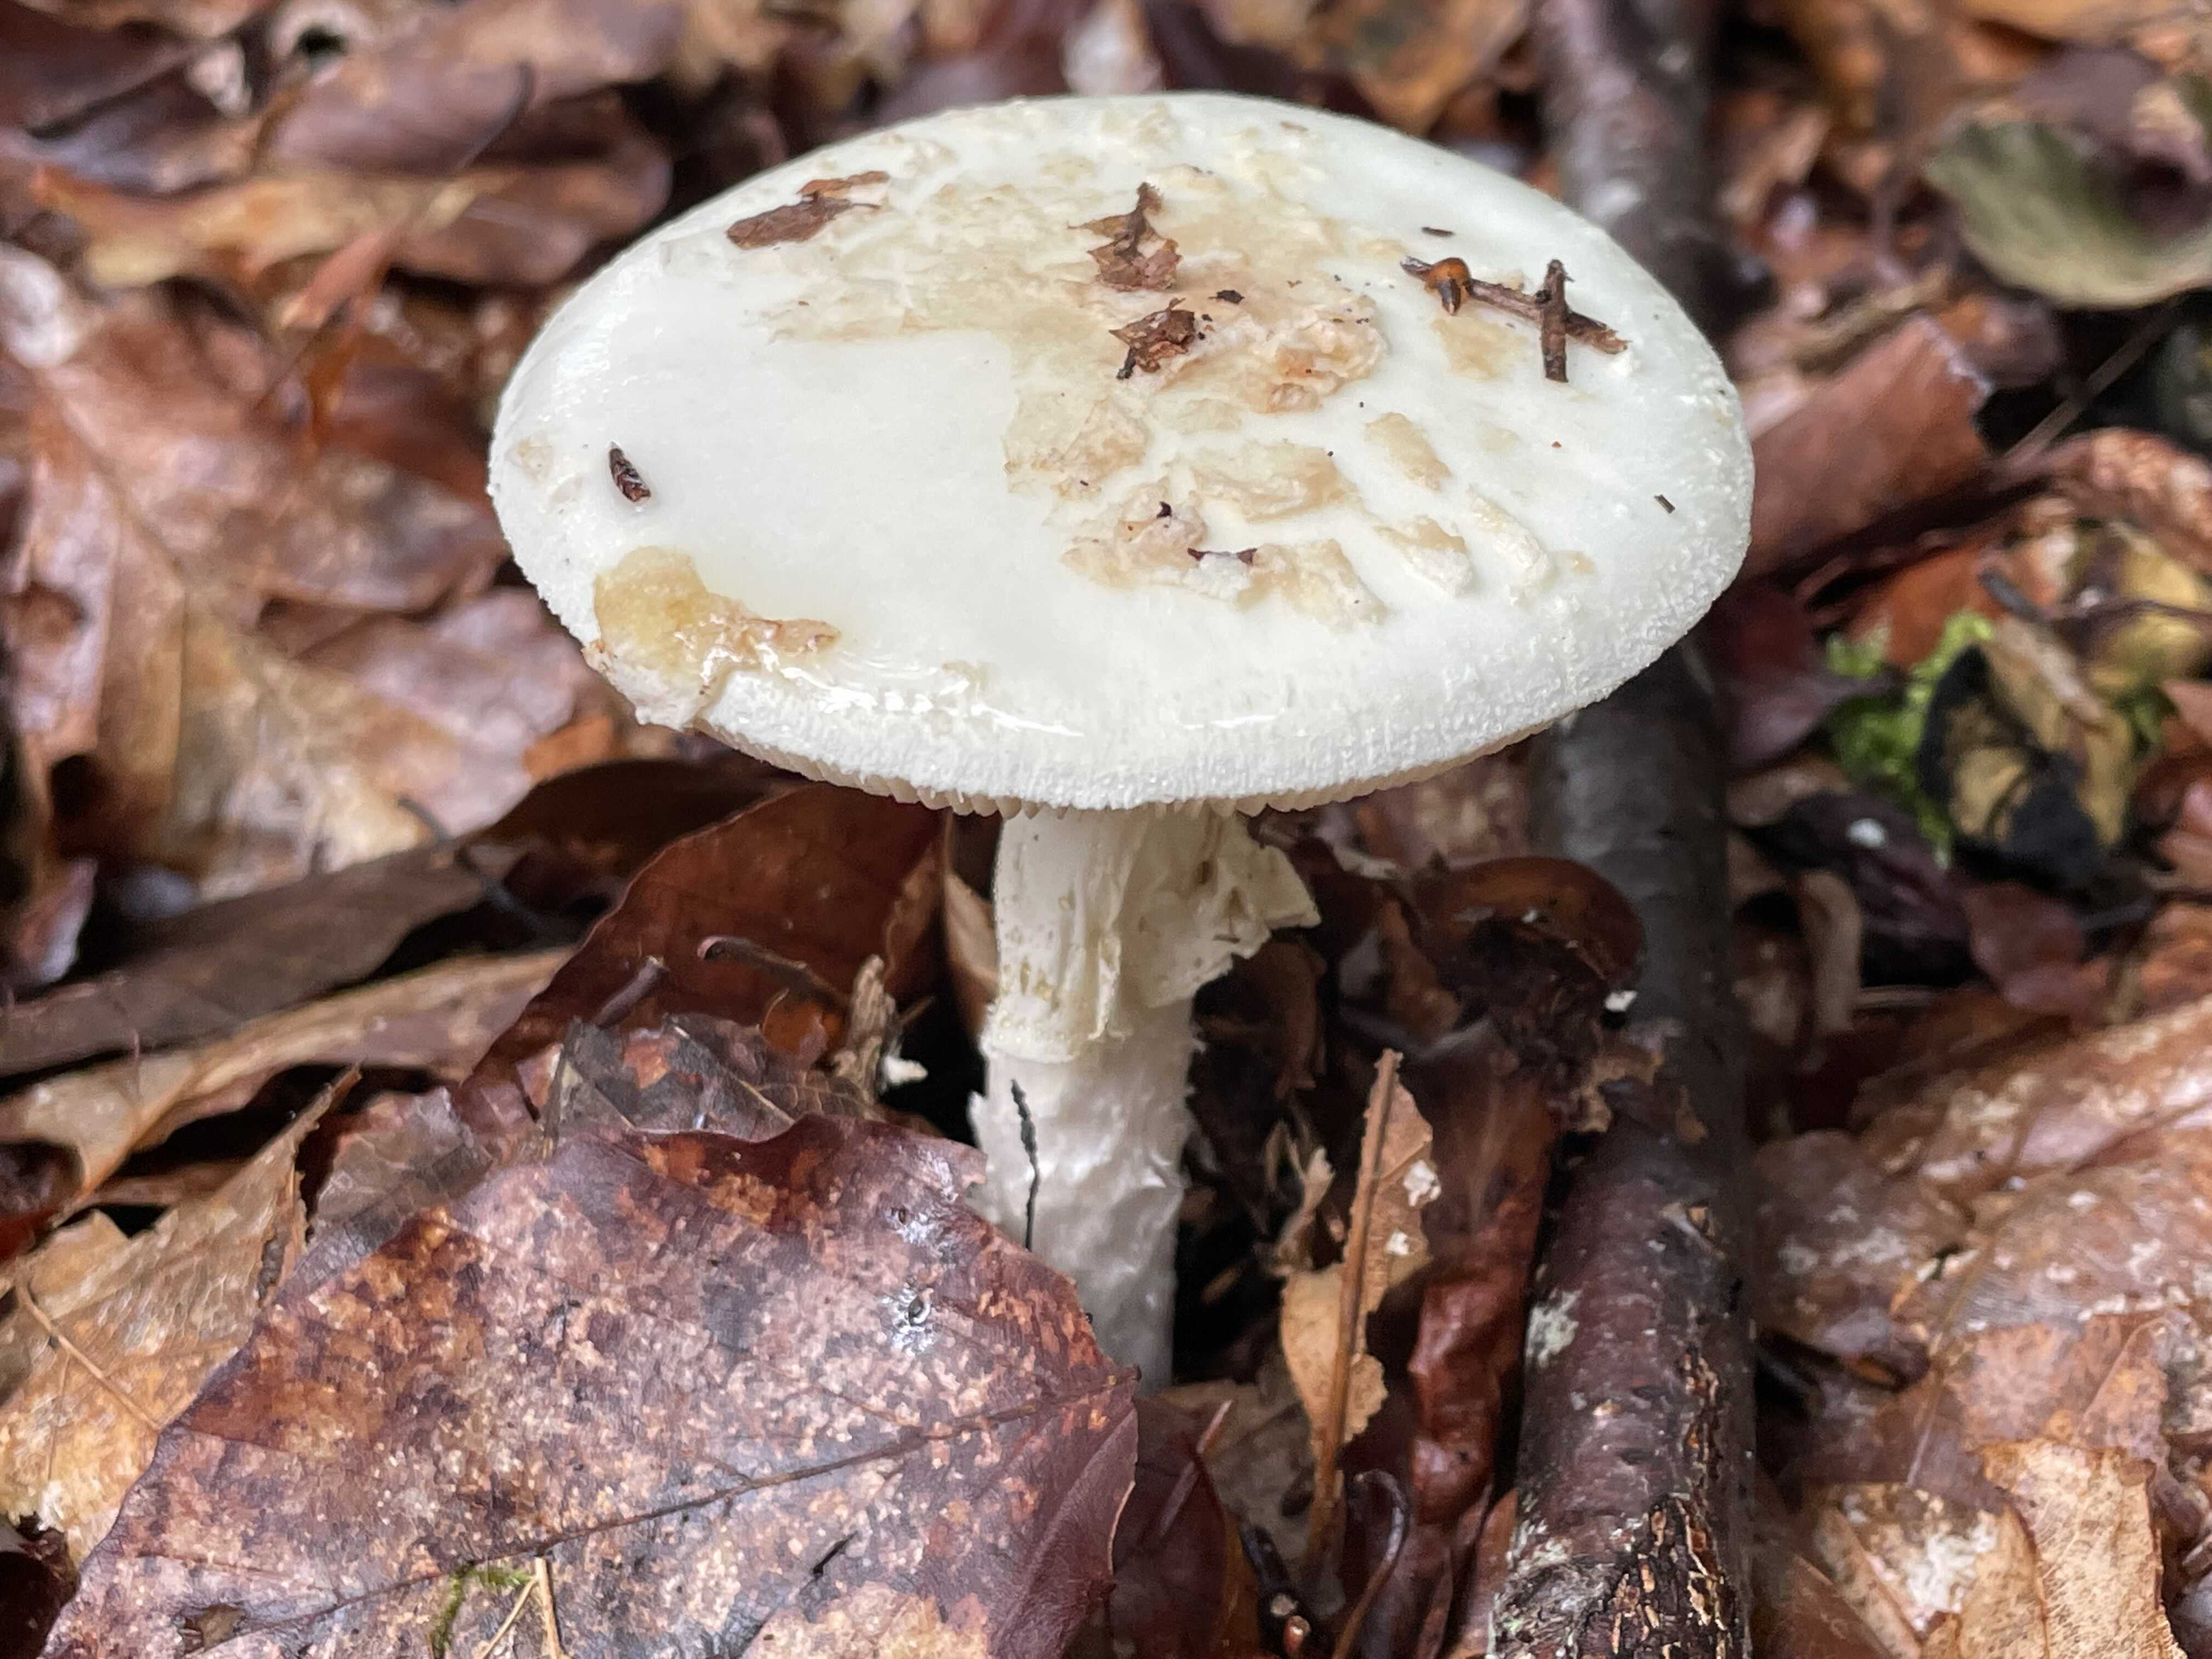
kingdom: Fungi
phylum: Basidiomycota
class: Agaricomycetes
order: Agaricales
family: Amanitaceae
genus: Amanita
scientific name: Amanita citrina
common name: kugleknoldet fluesvamp
